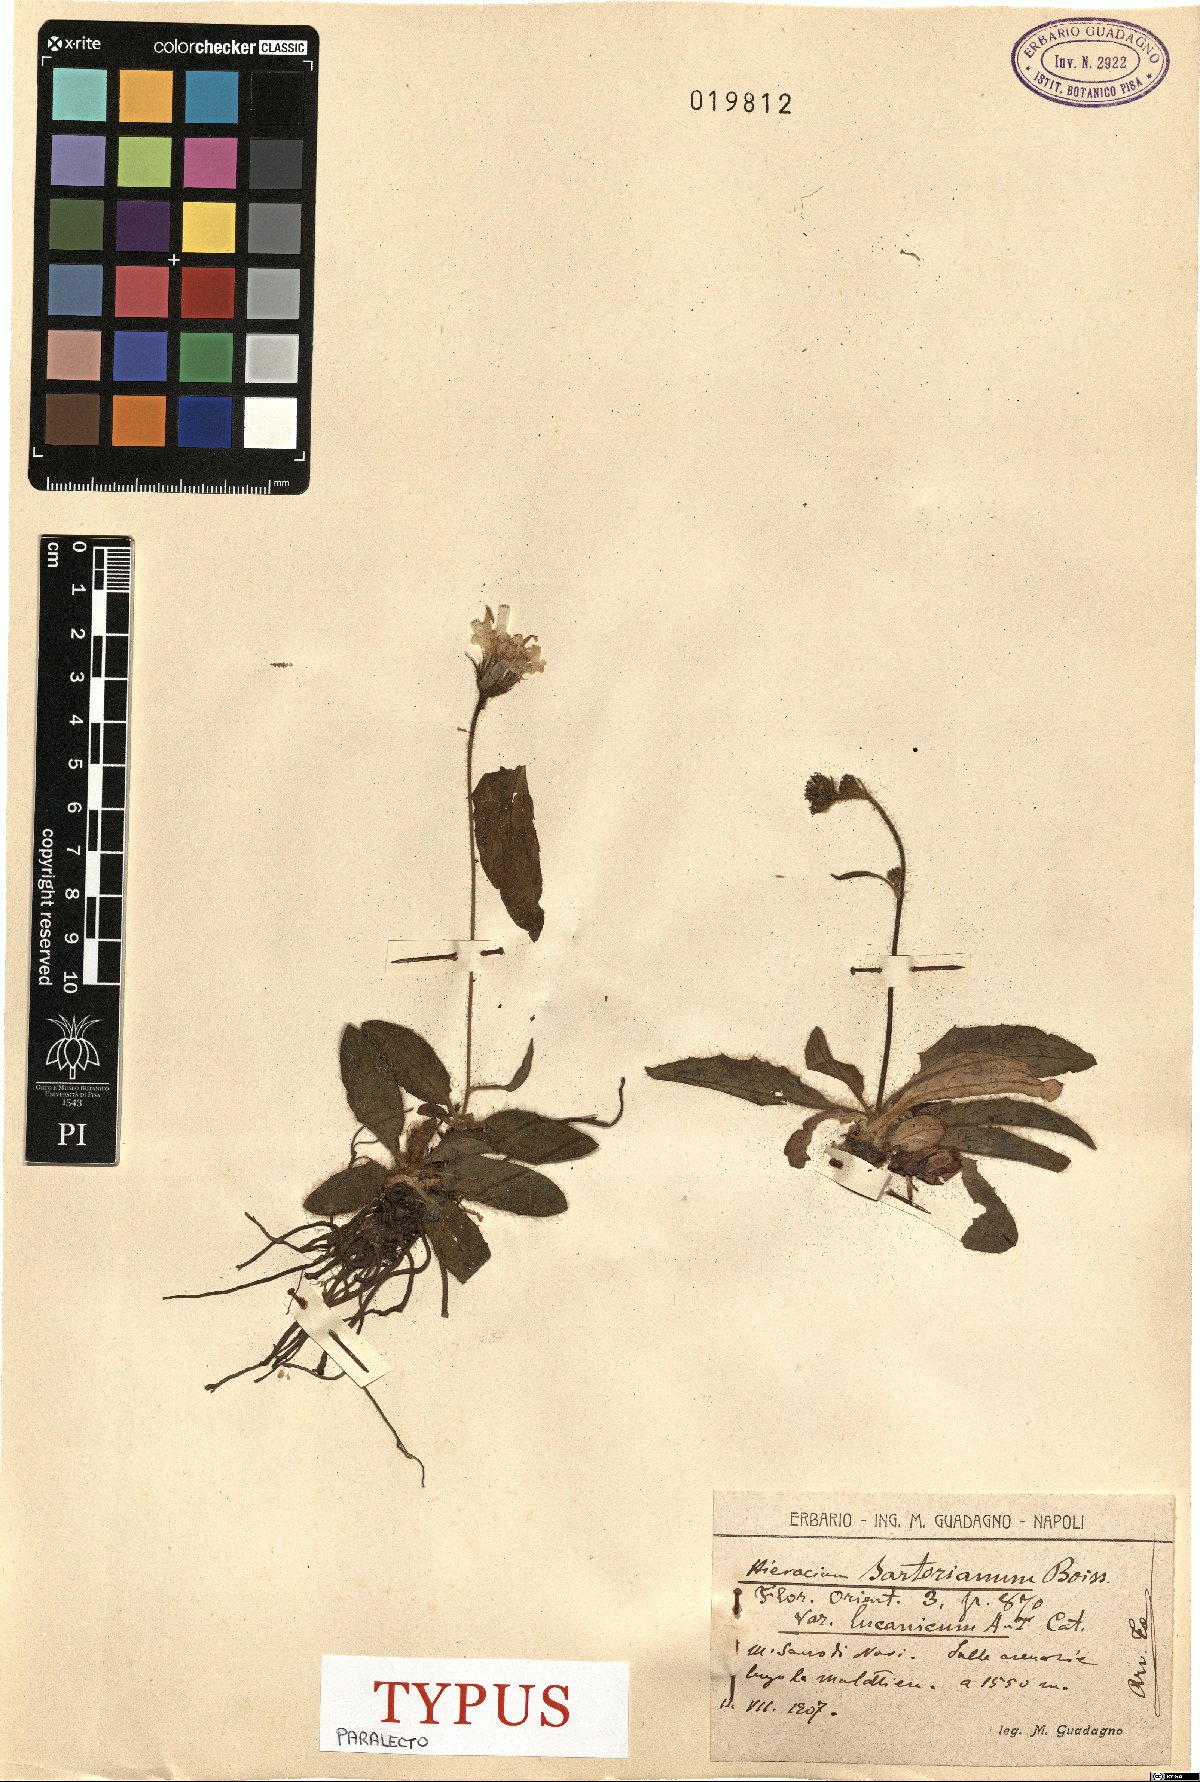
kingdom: Plantae
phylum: Tracheophyta
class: Magnoliopsida
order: Asterales
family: Asteraceae
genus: Hieracium
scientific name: Hieracium hypochoeroides
